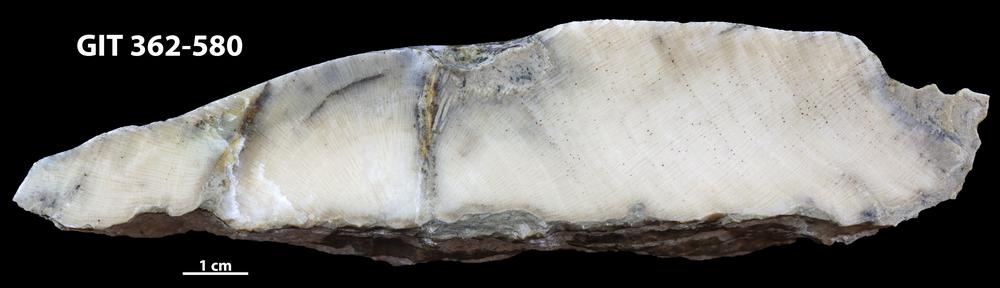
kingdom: Animalia
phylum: Bryozoa
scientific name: Bryozoa
